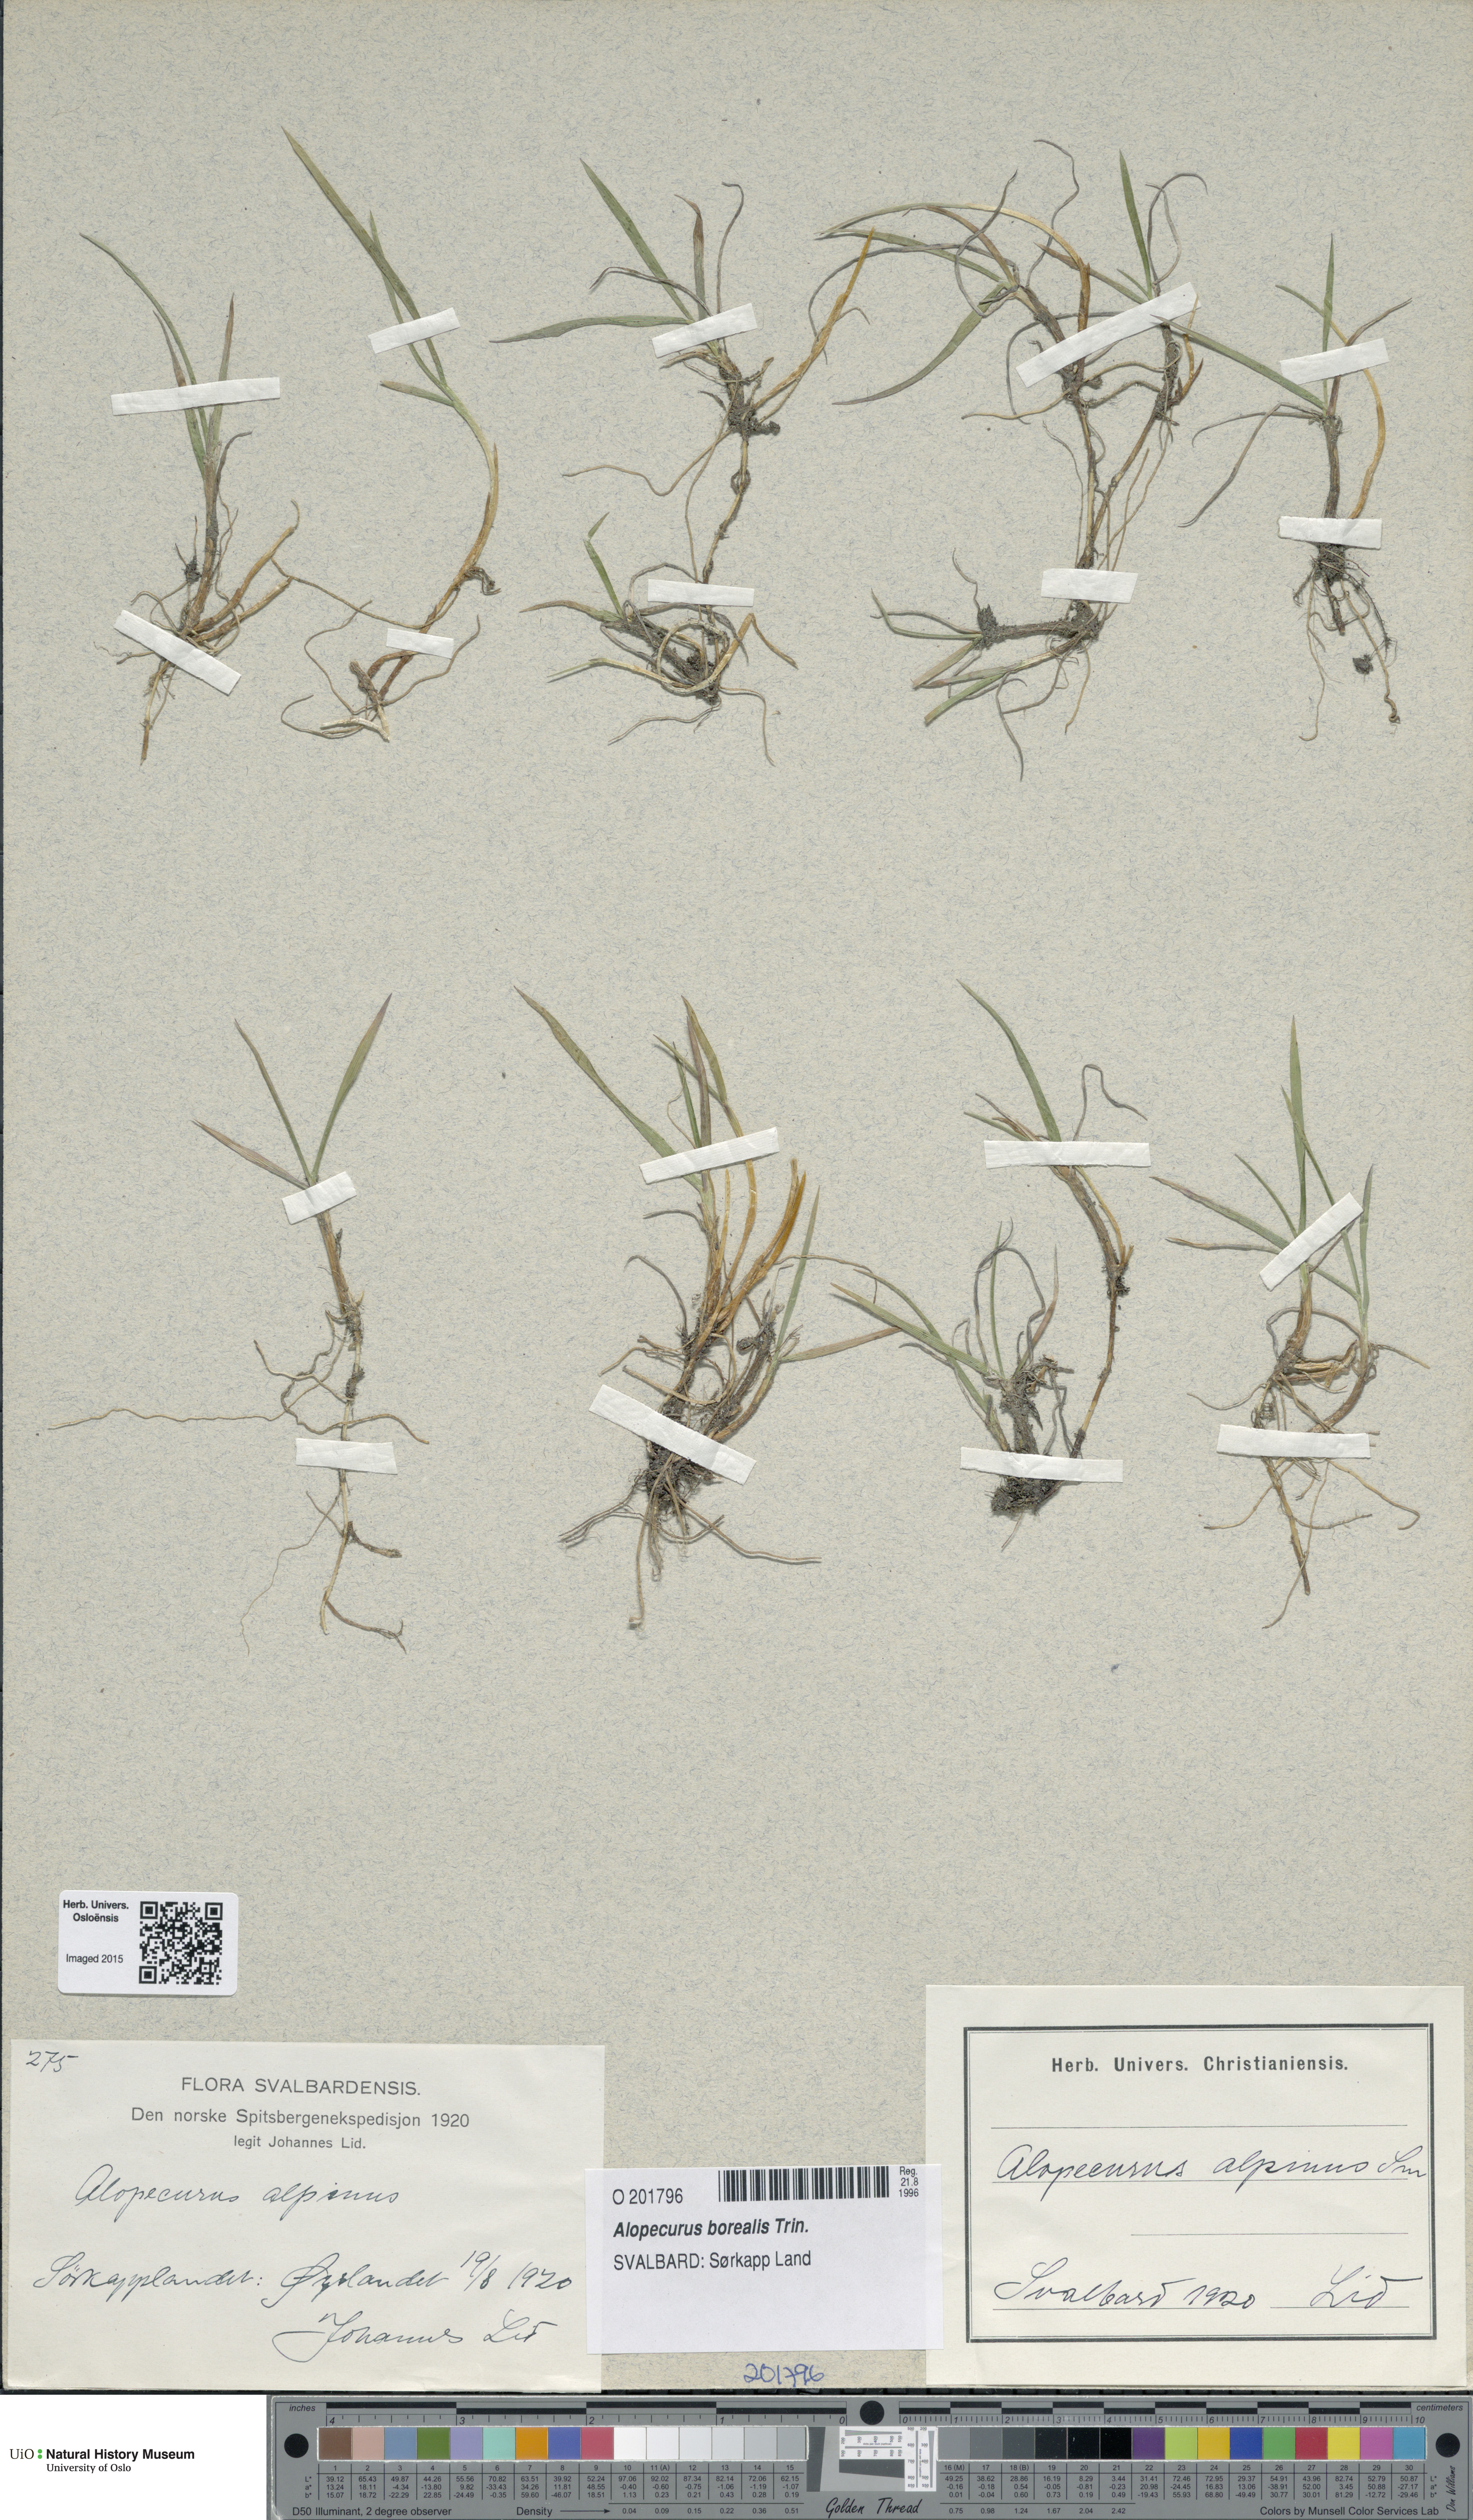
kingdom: Plantae
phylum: Tracheophyta
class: Liliopsida
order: Poales
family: Poaceae
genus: Alopecurus
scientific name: Alopecurus magellanicus
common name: Alpine foxtail
